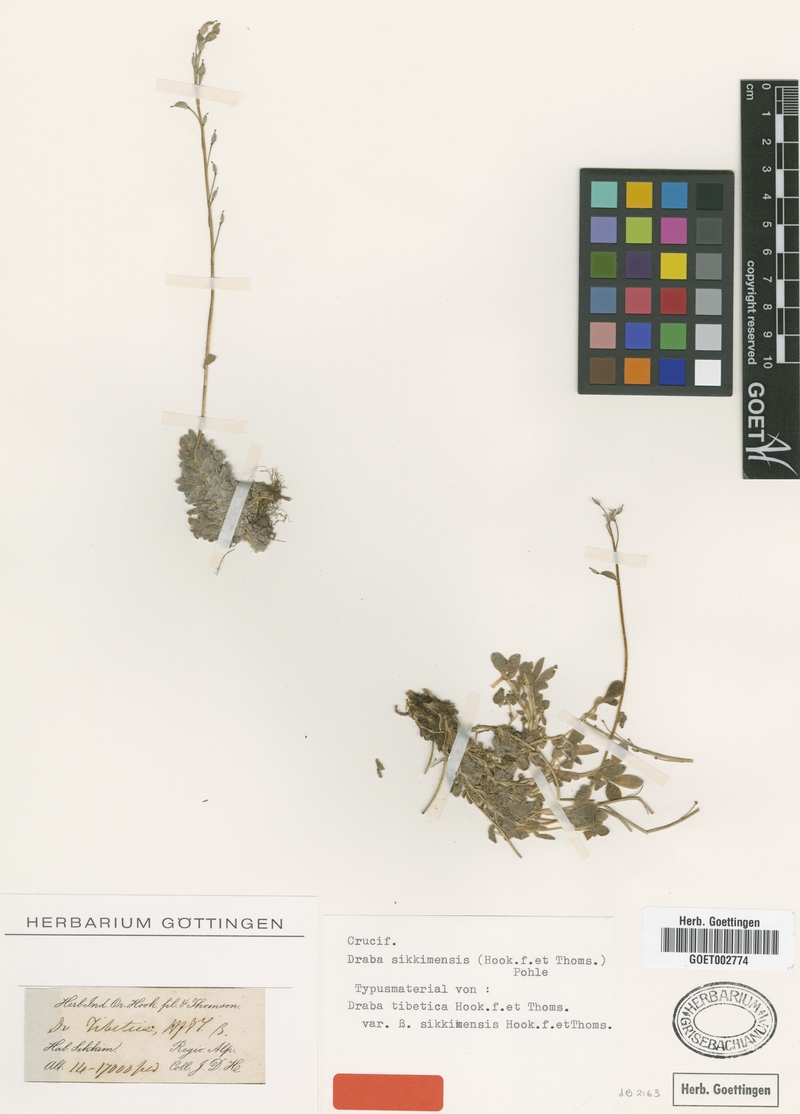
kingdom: Plantae
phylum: Tracheophyta
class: Magnoliopsida
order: Brassicales
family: Brassicaceae
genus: Draba
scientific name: Draba sikkimensis
